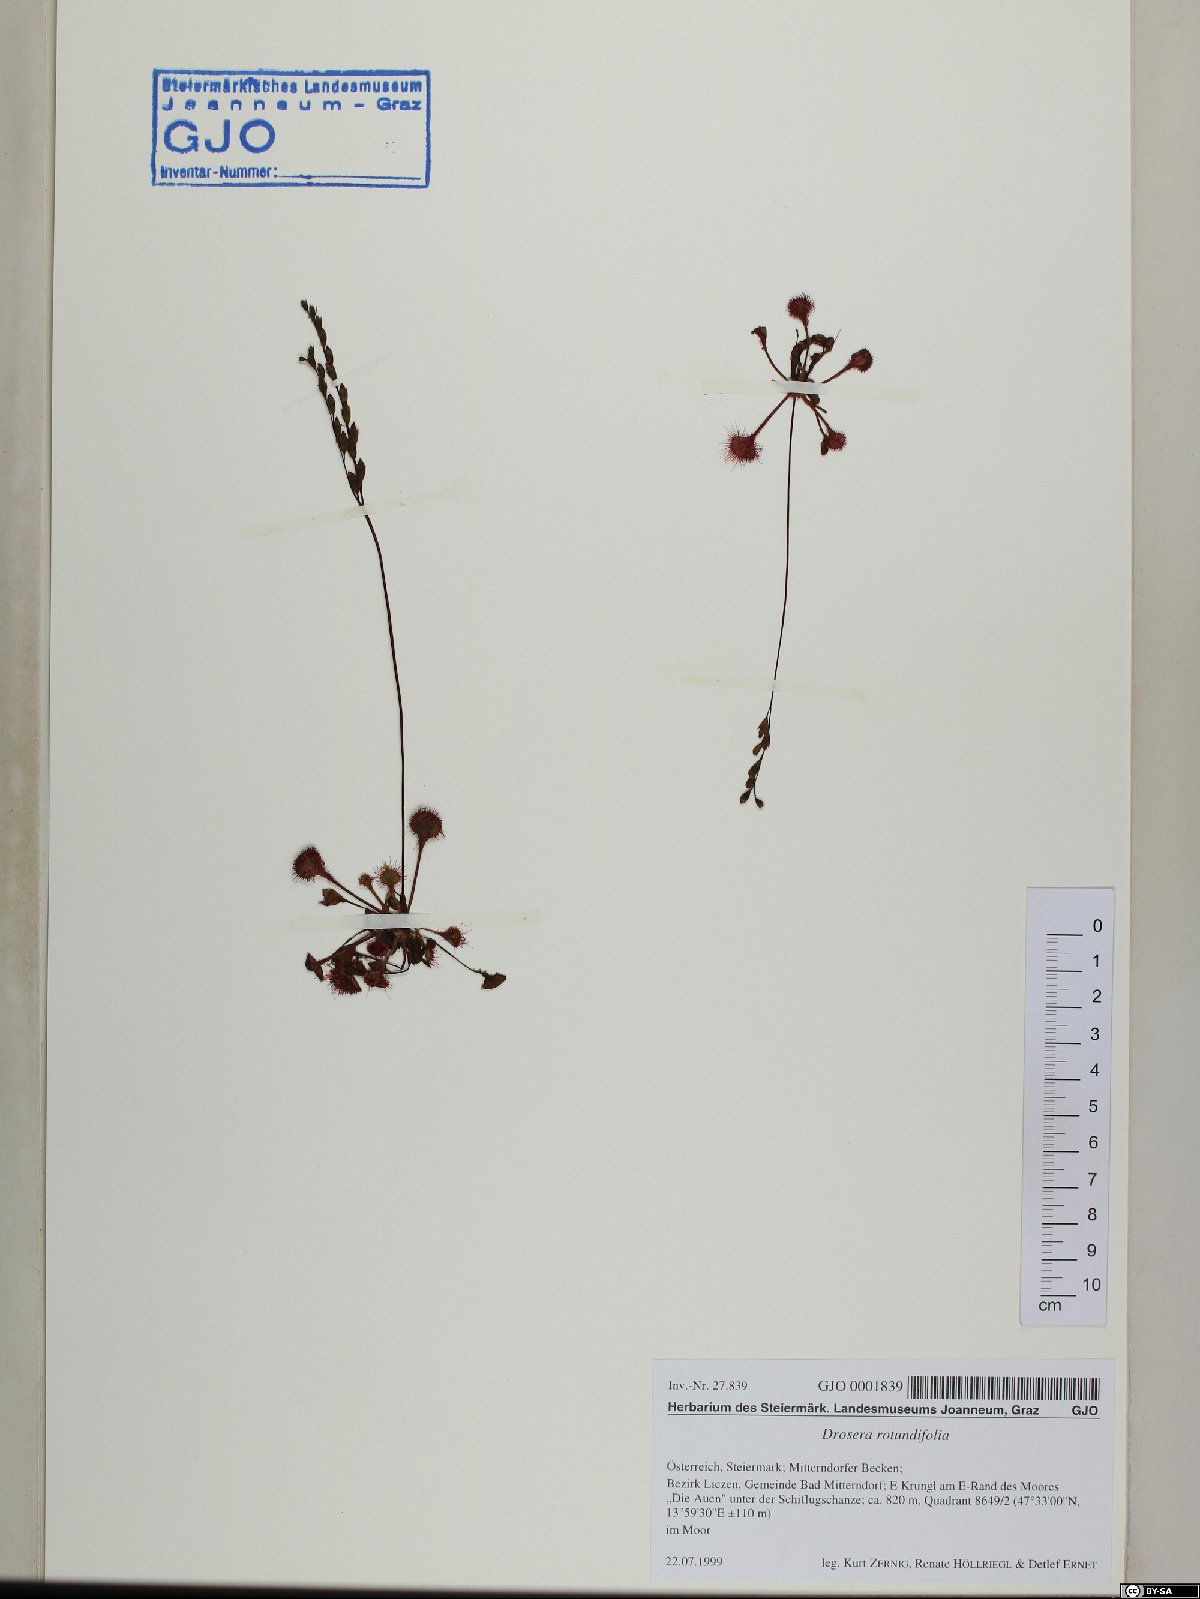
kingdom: Plantae
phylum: Tracheophyta
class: Magnoliopsida
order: Caryophyllales
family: Droseraceae
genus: Drosera
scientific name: Drosera rotundifolia
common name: Round-leaved sundew
